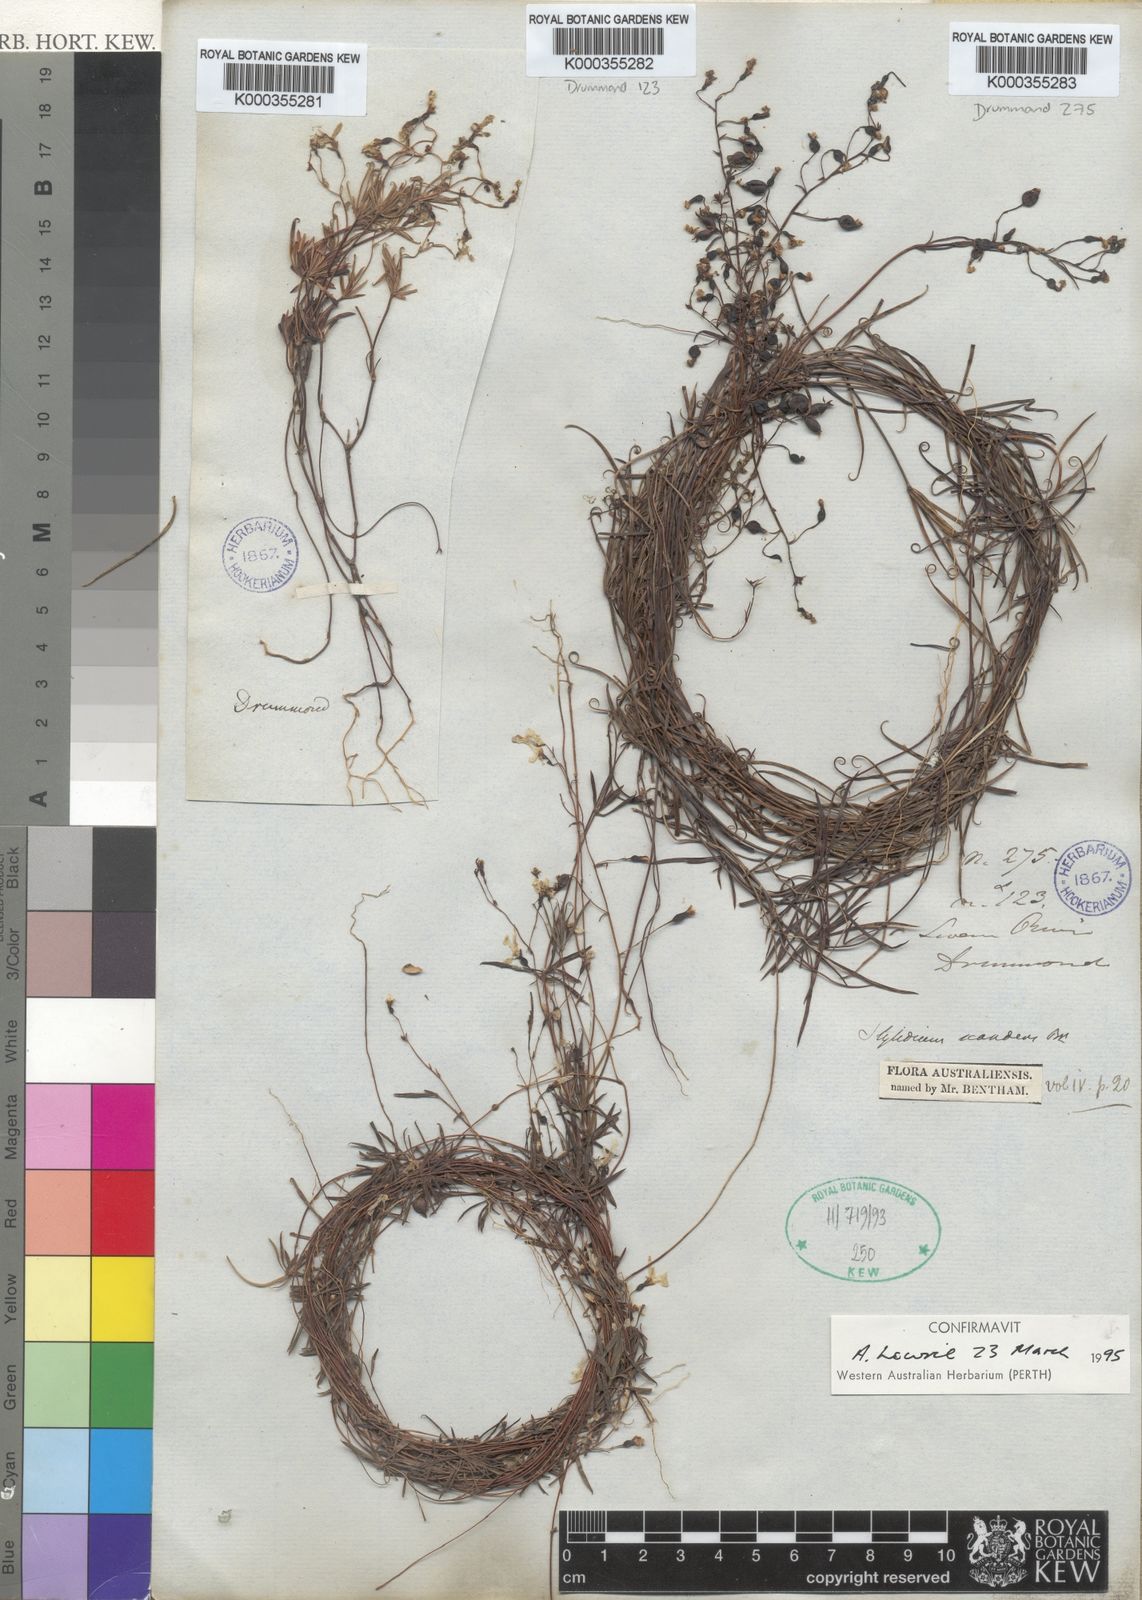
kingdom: Plantae
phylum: Tracheophyta
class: Magnoliopsida
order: Asterales
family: Stylidiaceae
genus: Stylidium
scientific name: Stylidium scandens
